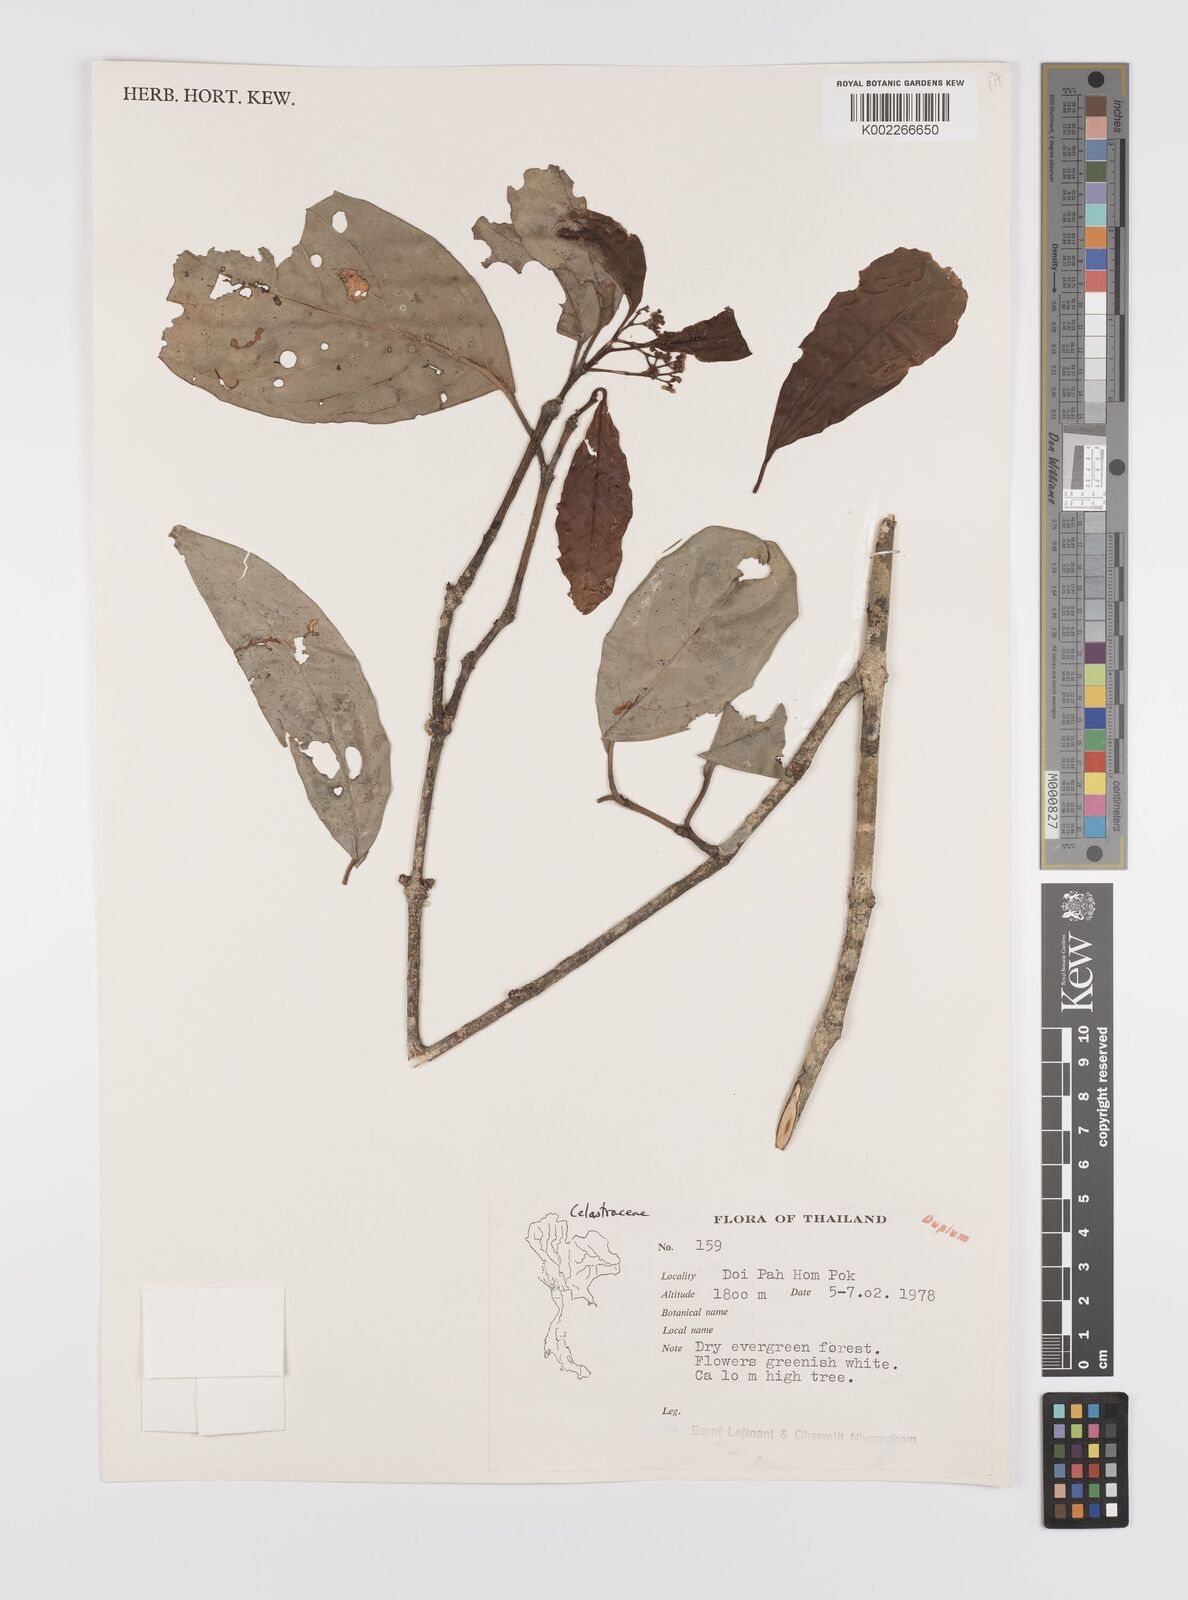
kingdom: Plantae
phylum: Tracheophyta
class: Magnoliopsida
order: Celastrales
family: Celastraceae
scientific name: Celastraceae
